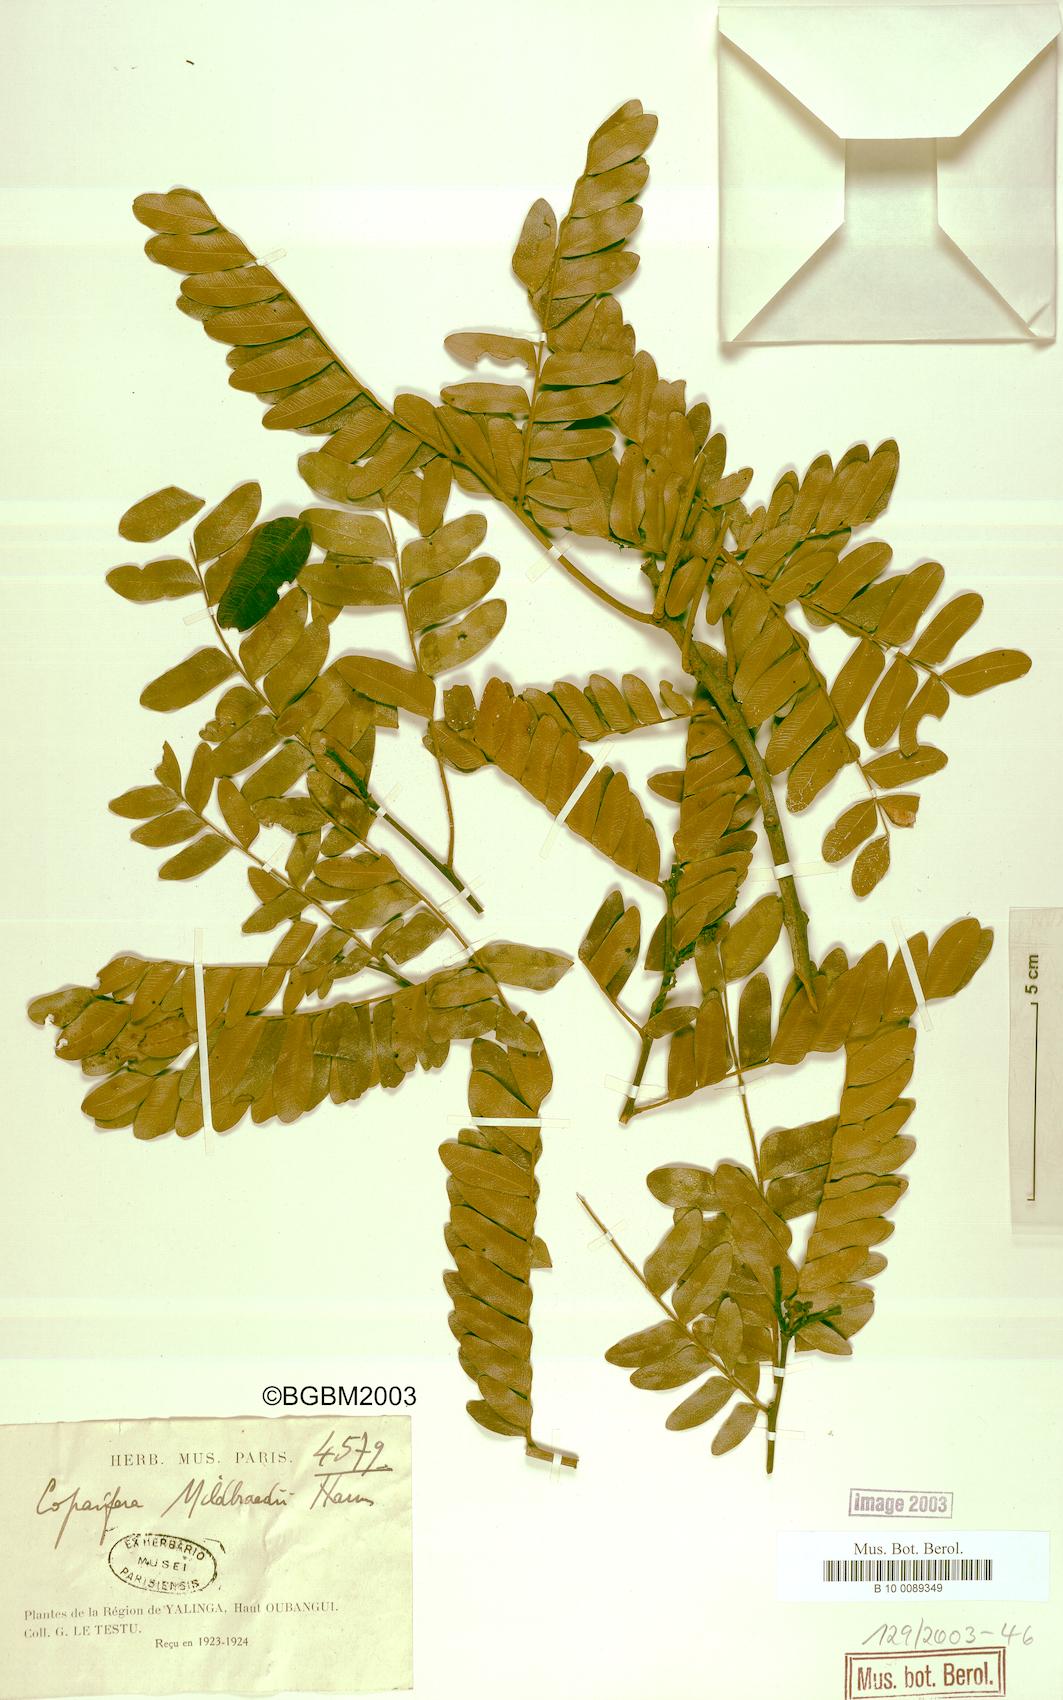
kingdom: Plantae
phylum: Tracheophyta
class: Magnoliopsida
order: Fabales
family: Fabaceae
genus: Copaifera
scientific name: Copaifera mildbraedii
